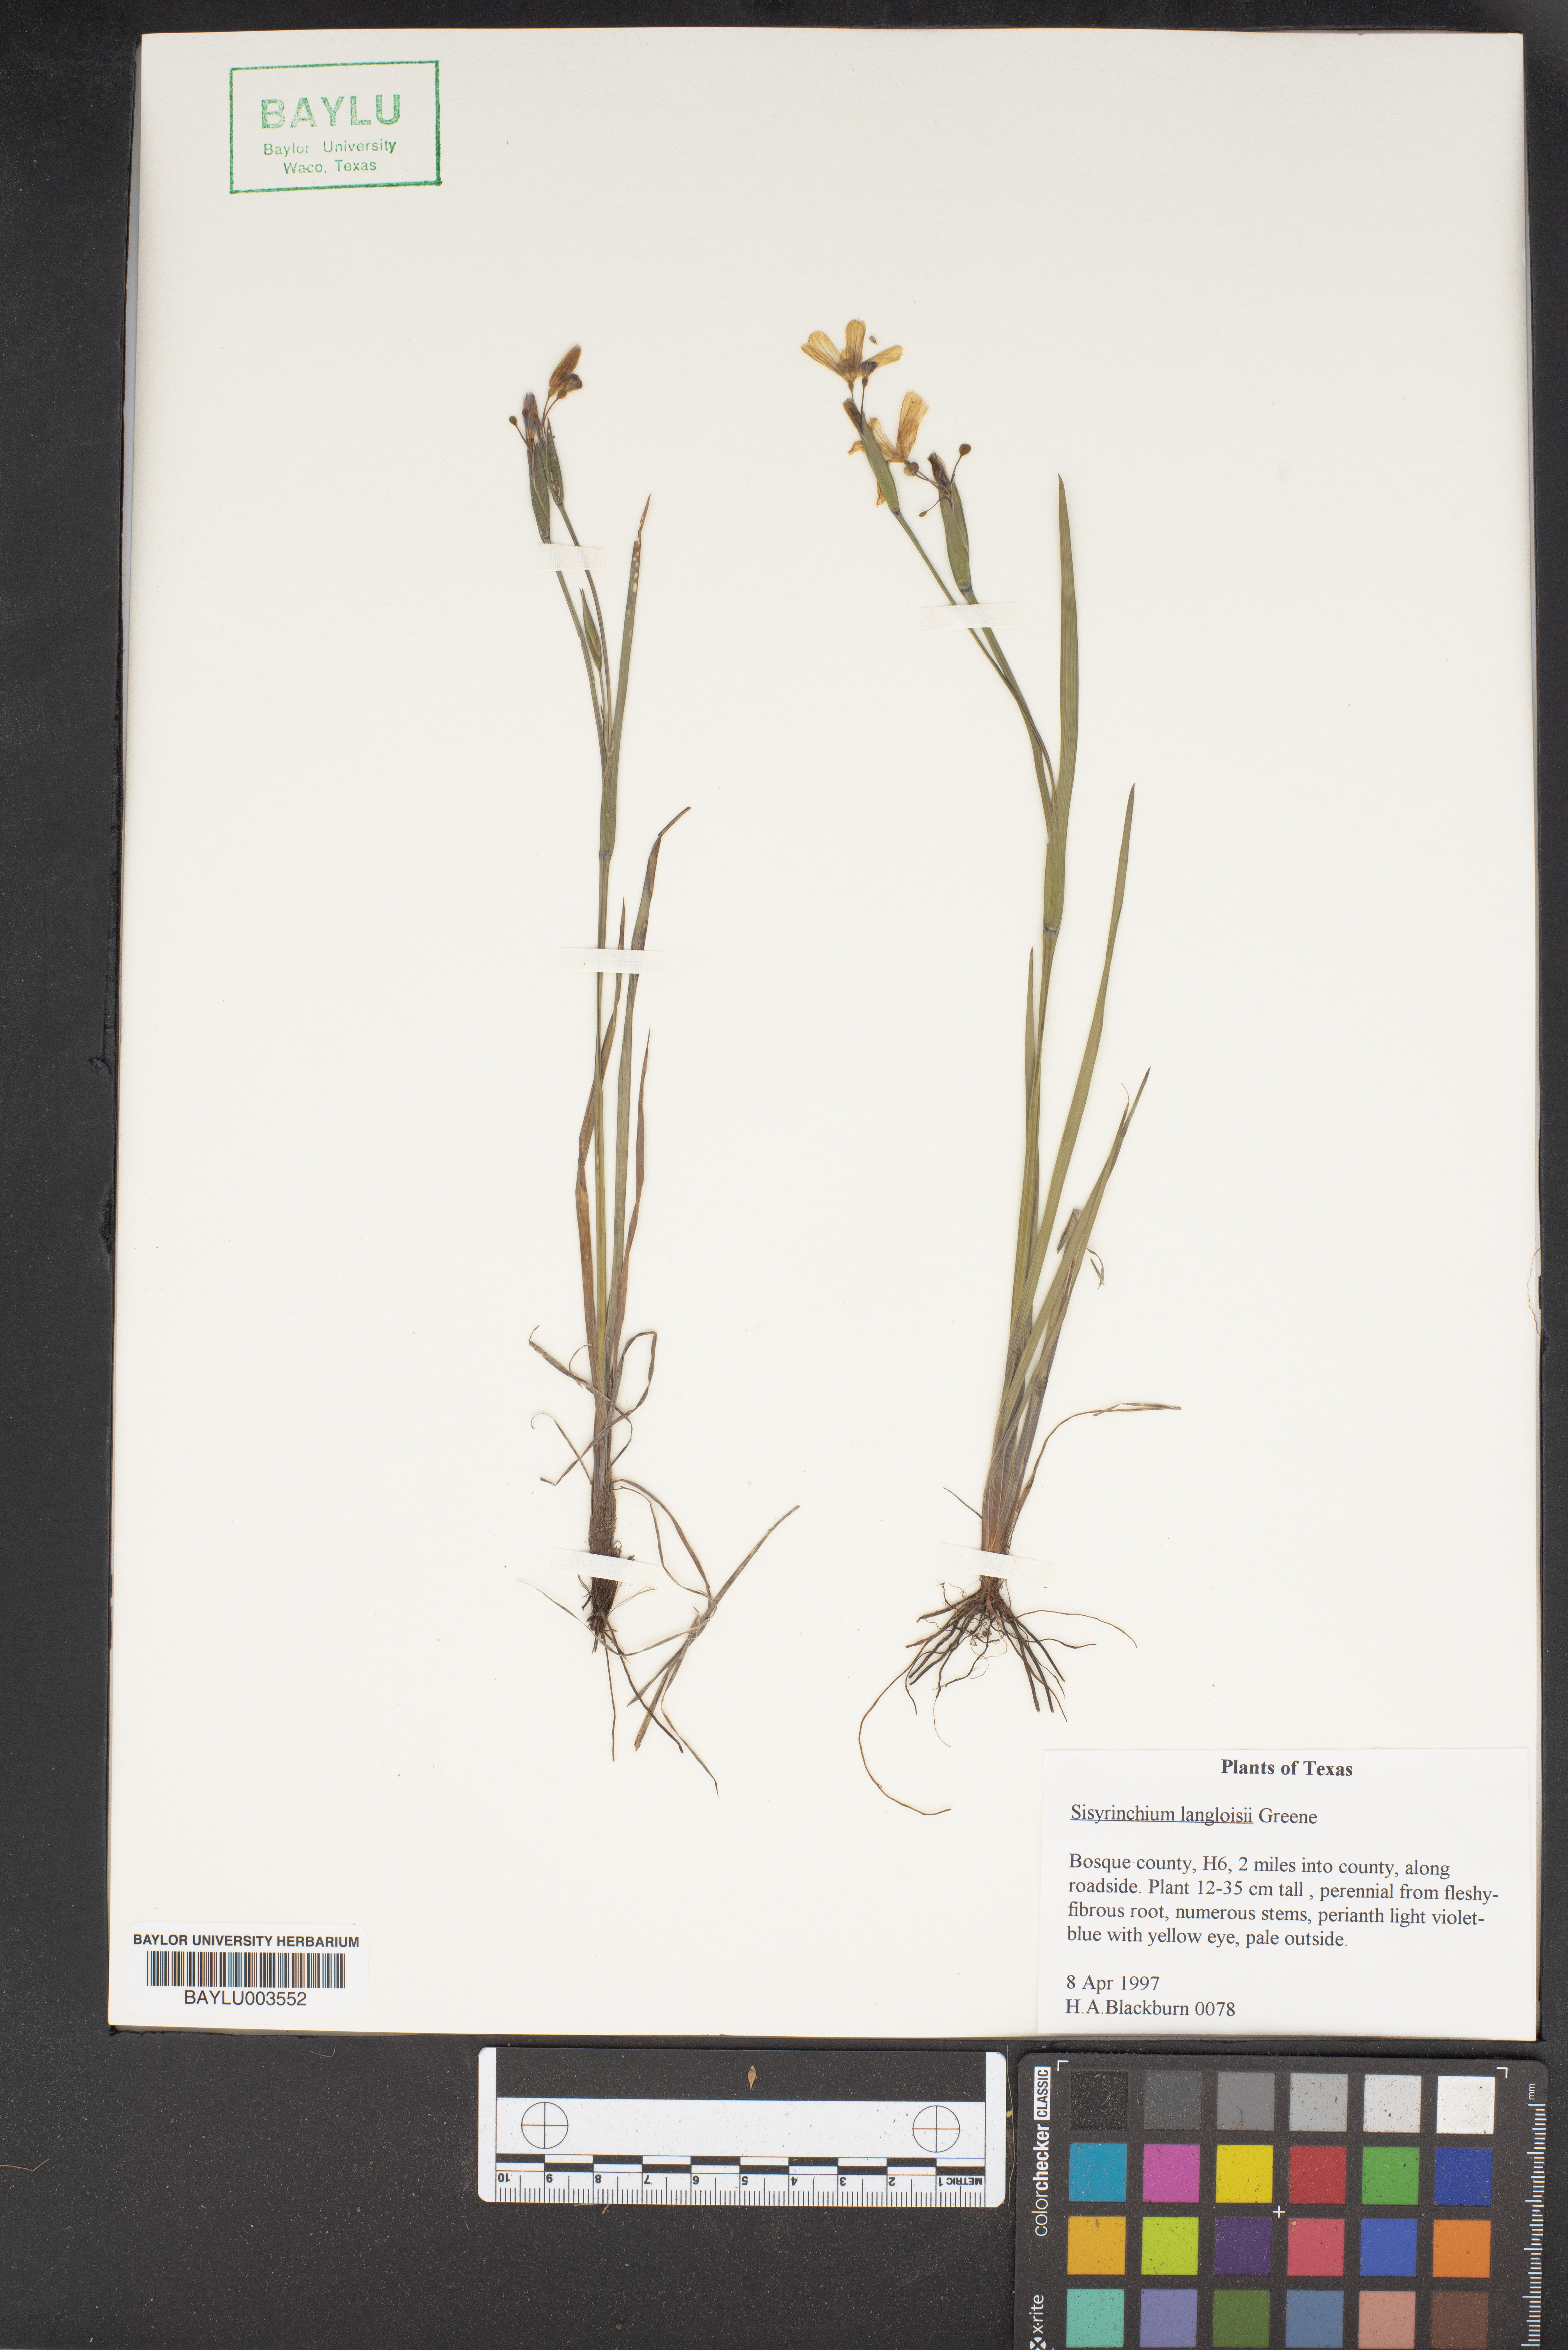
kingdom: Plantae
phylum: Tracheophyta
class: Liliopsida
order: Asparagales
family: Iridaceae
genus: Sisyrinchium
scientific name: Sisyrinchium langloisii
